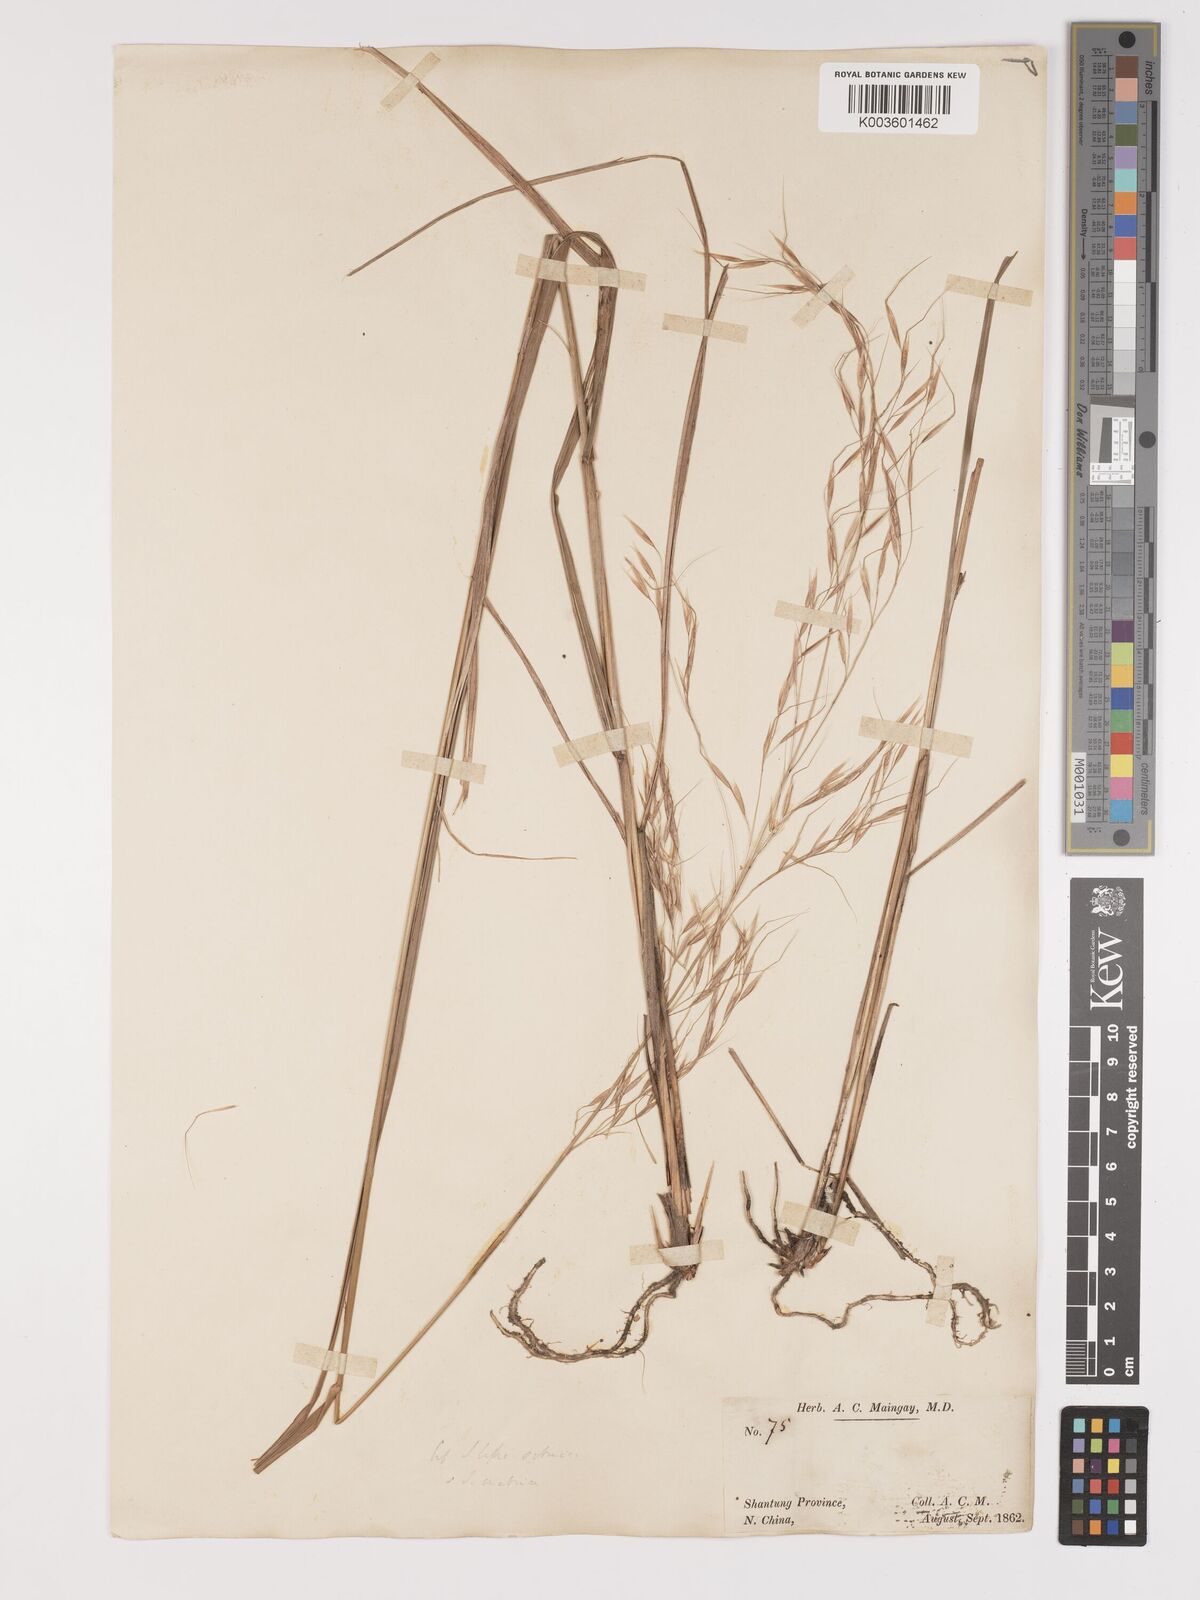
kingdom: Plantae
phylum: Tracheophyta
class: Liliopsida
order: Poales
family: Poaceae
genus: Achnatherum
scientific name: Achnatherum pekinense
